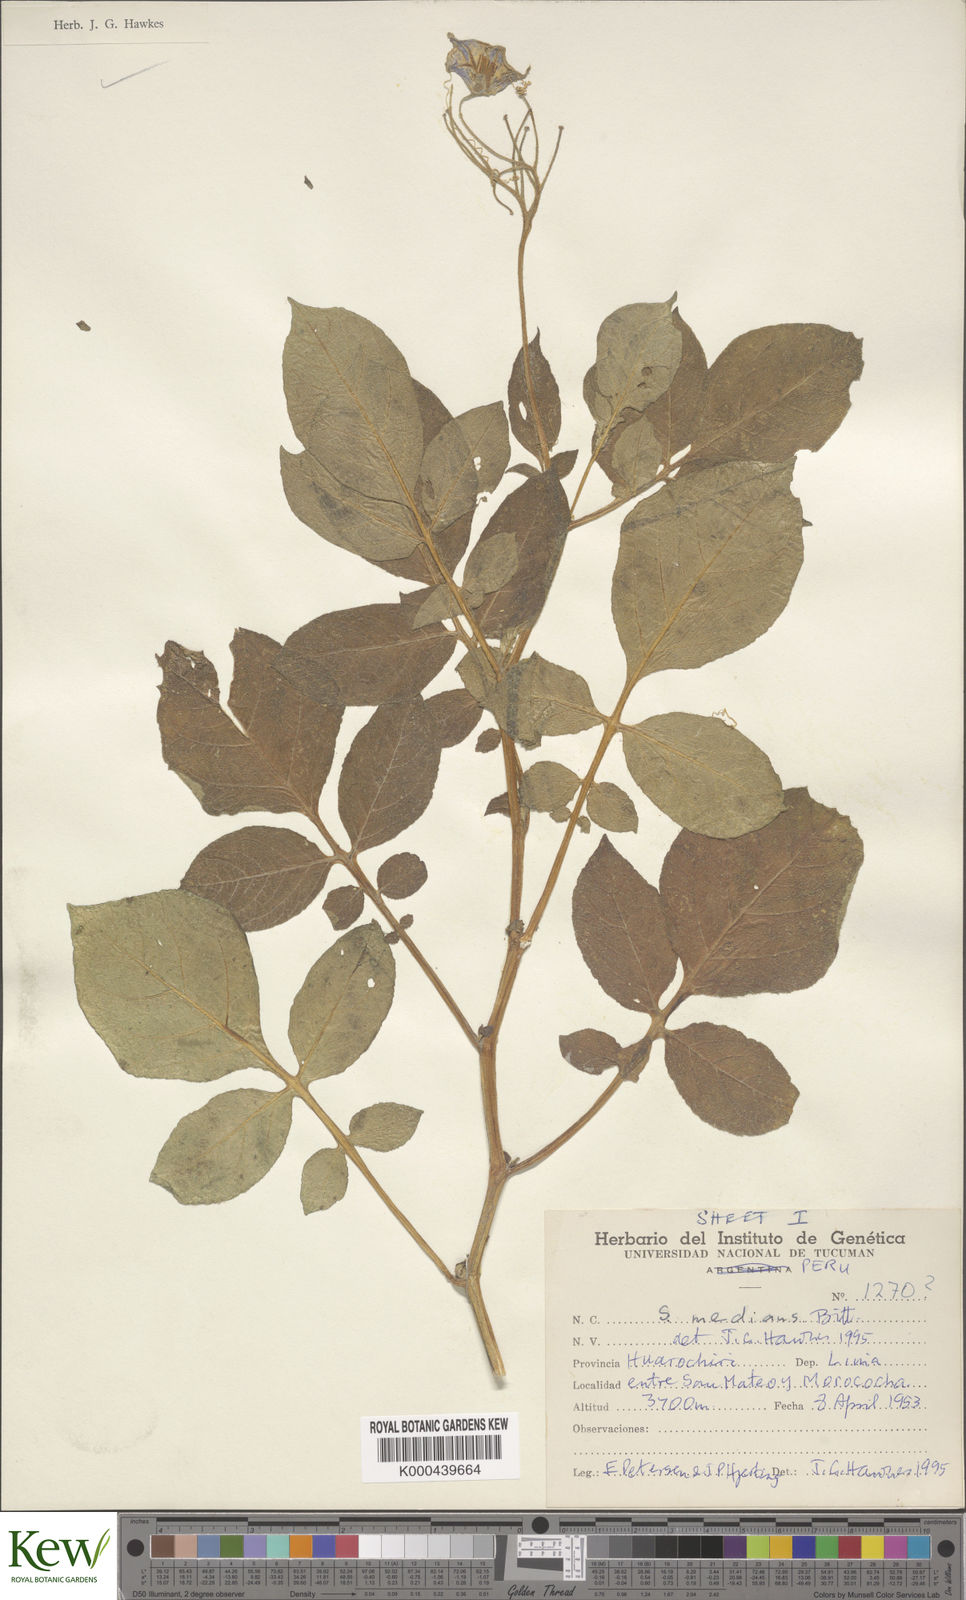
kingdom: Plantae
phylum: Tracheophyta
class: Magnoliopsida
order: Solanales
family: Solanaceae
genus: Solanum
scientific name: Solanum medians
